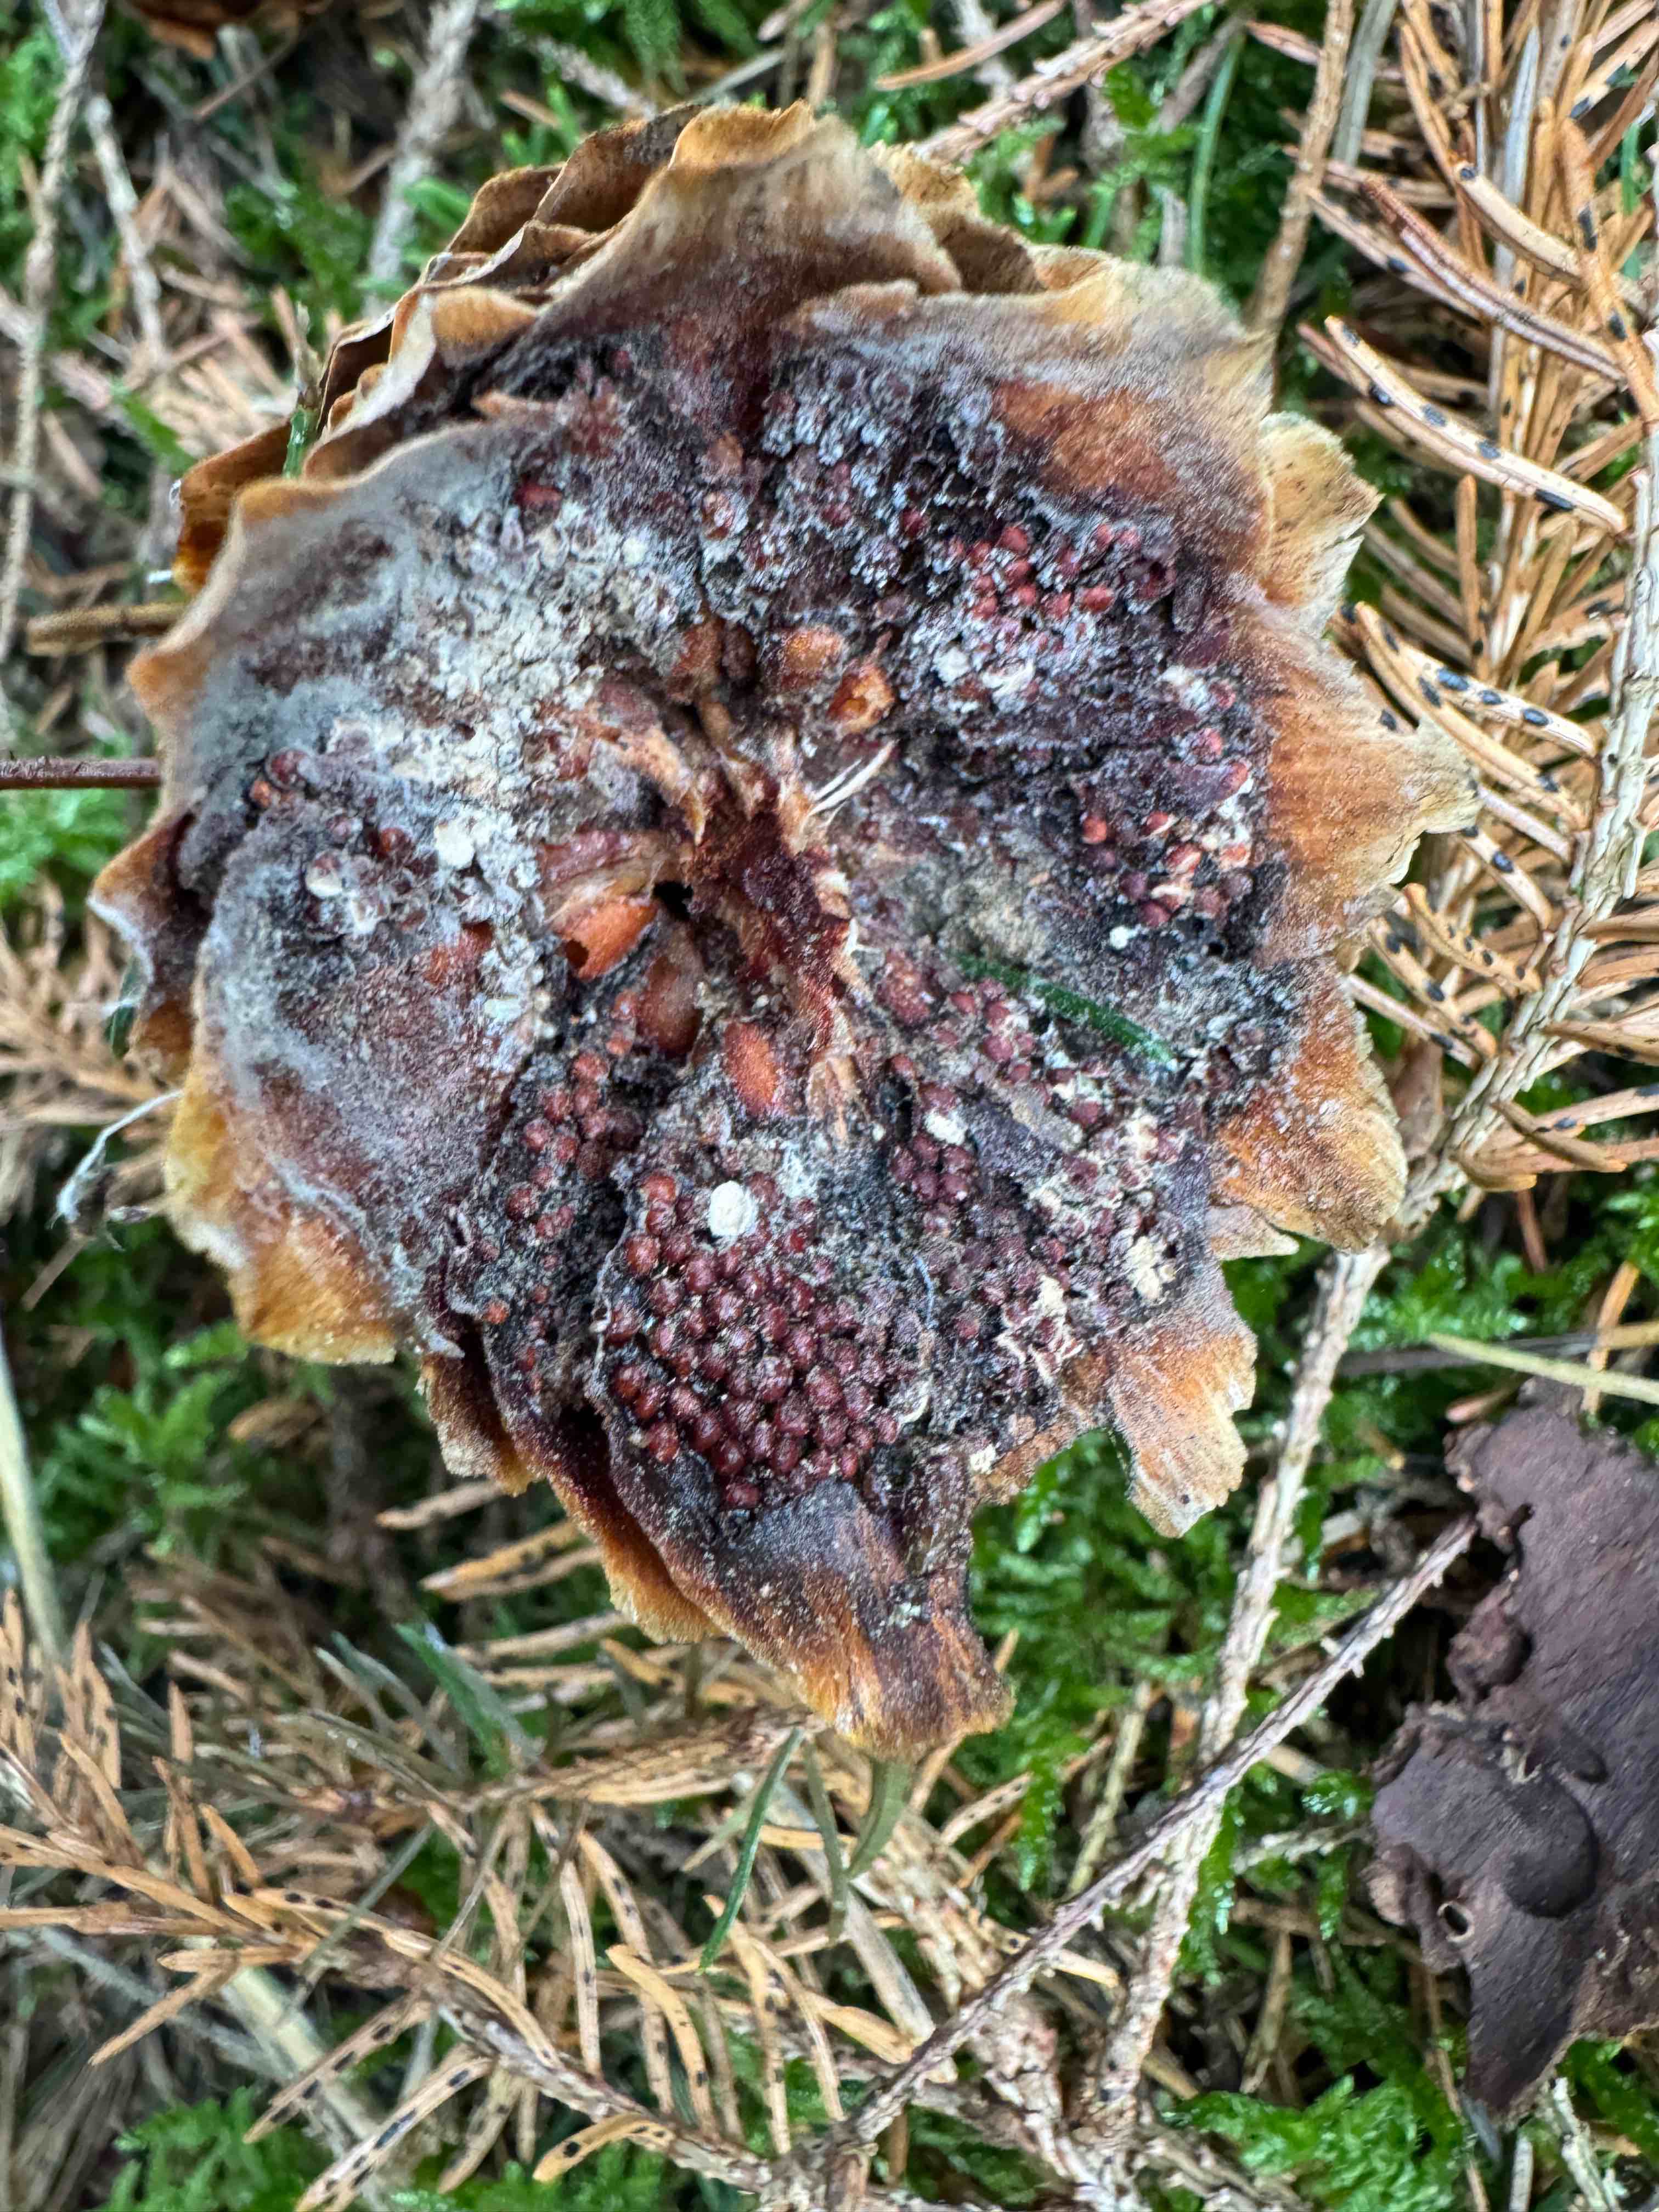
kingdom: Fungi
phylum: Basidiomycota
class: Pucciniomycetes
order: Pucciniales
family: Pucciniastraceae
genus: Thekopsora
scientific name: Thekopsora areolata
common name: grankogle-nålerust
